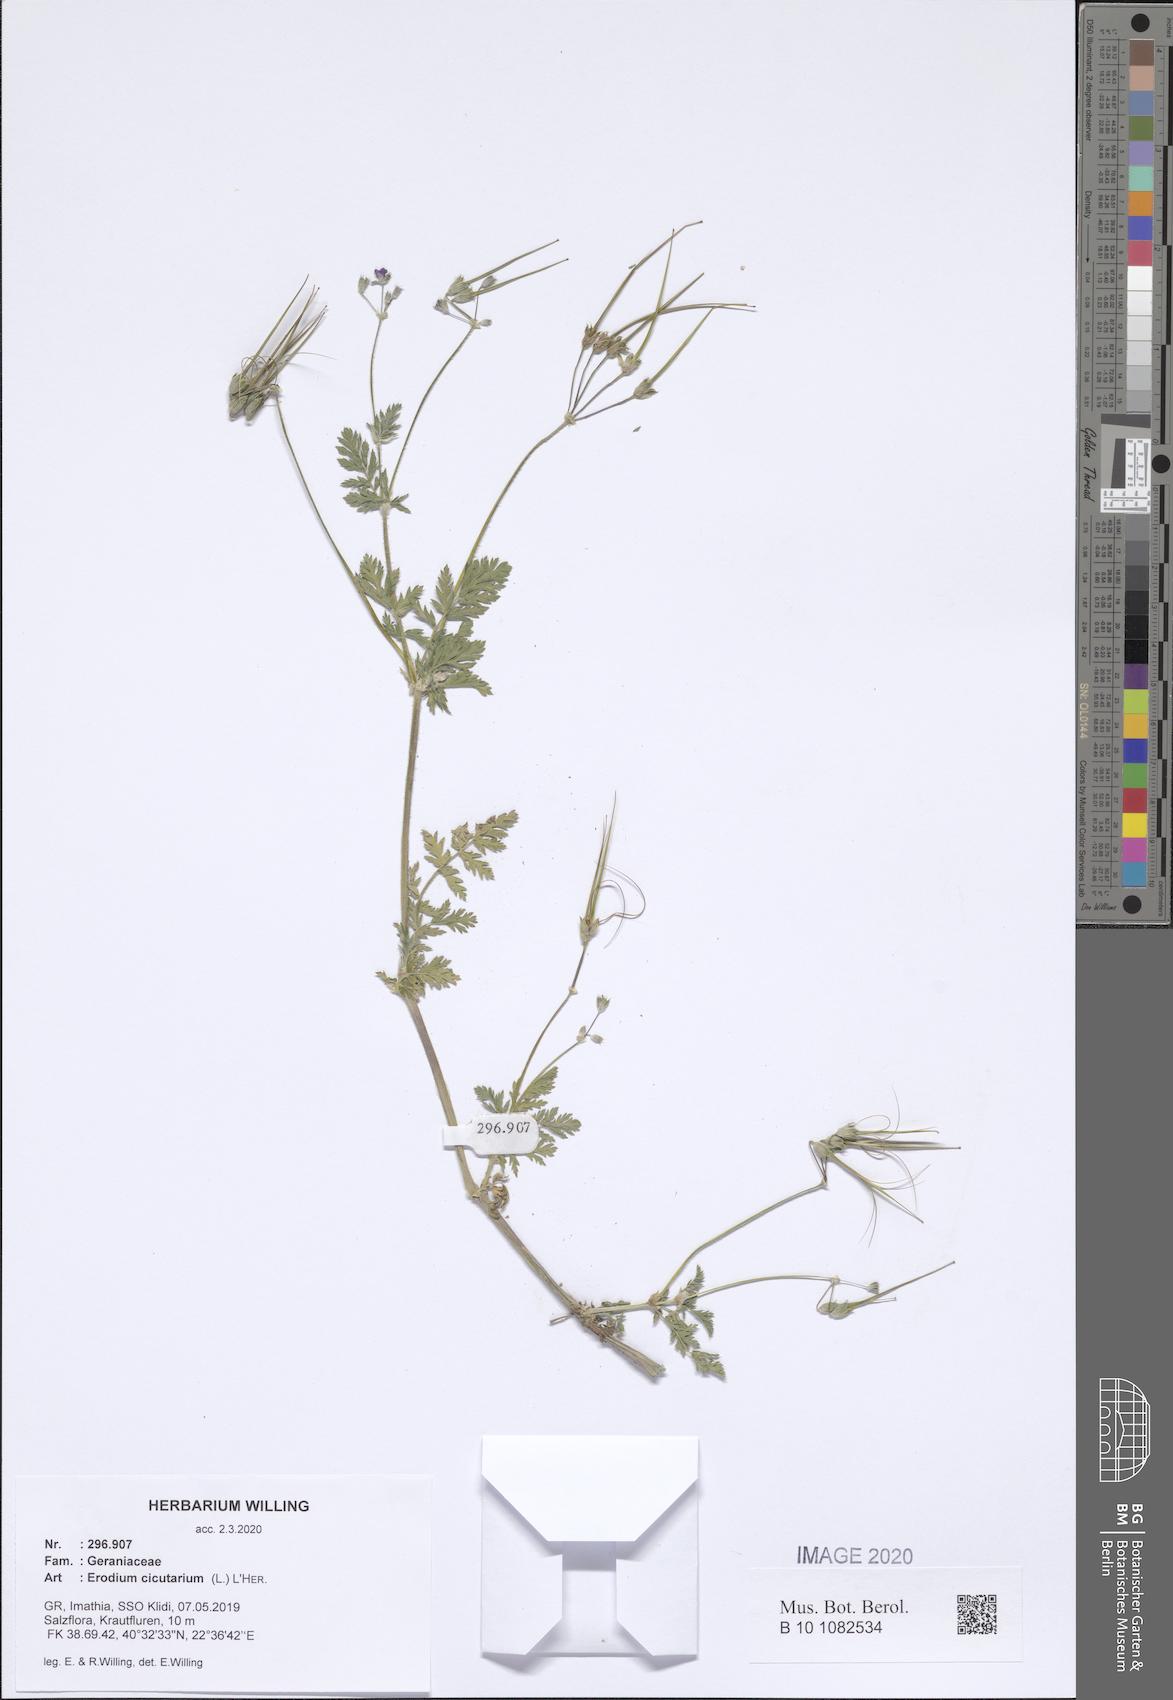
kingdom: Plantae
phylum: Tracheophyta
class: Magnoliopsida
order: Geraniales
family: Geraniaceae
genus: Erodium
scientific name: Erodium cicutarium
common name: Common stork's-bill
